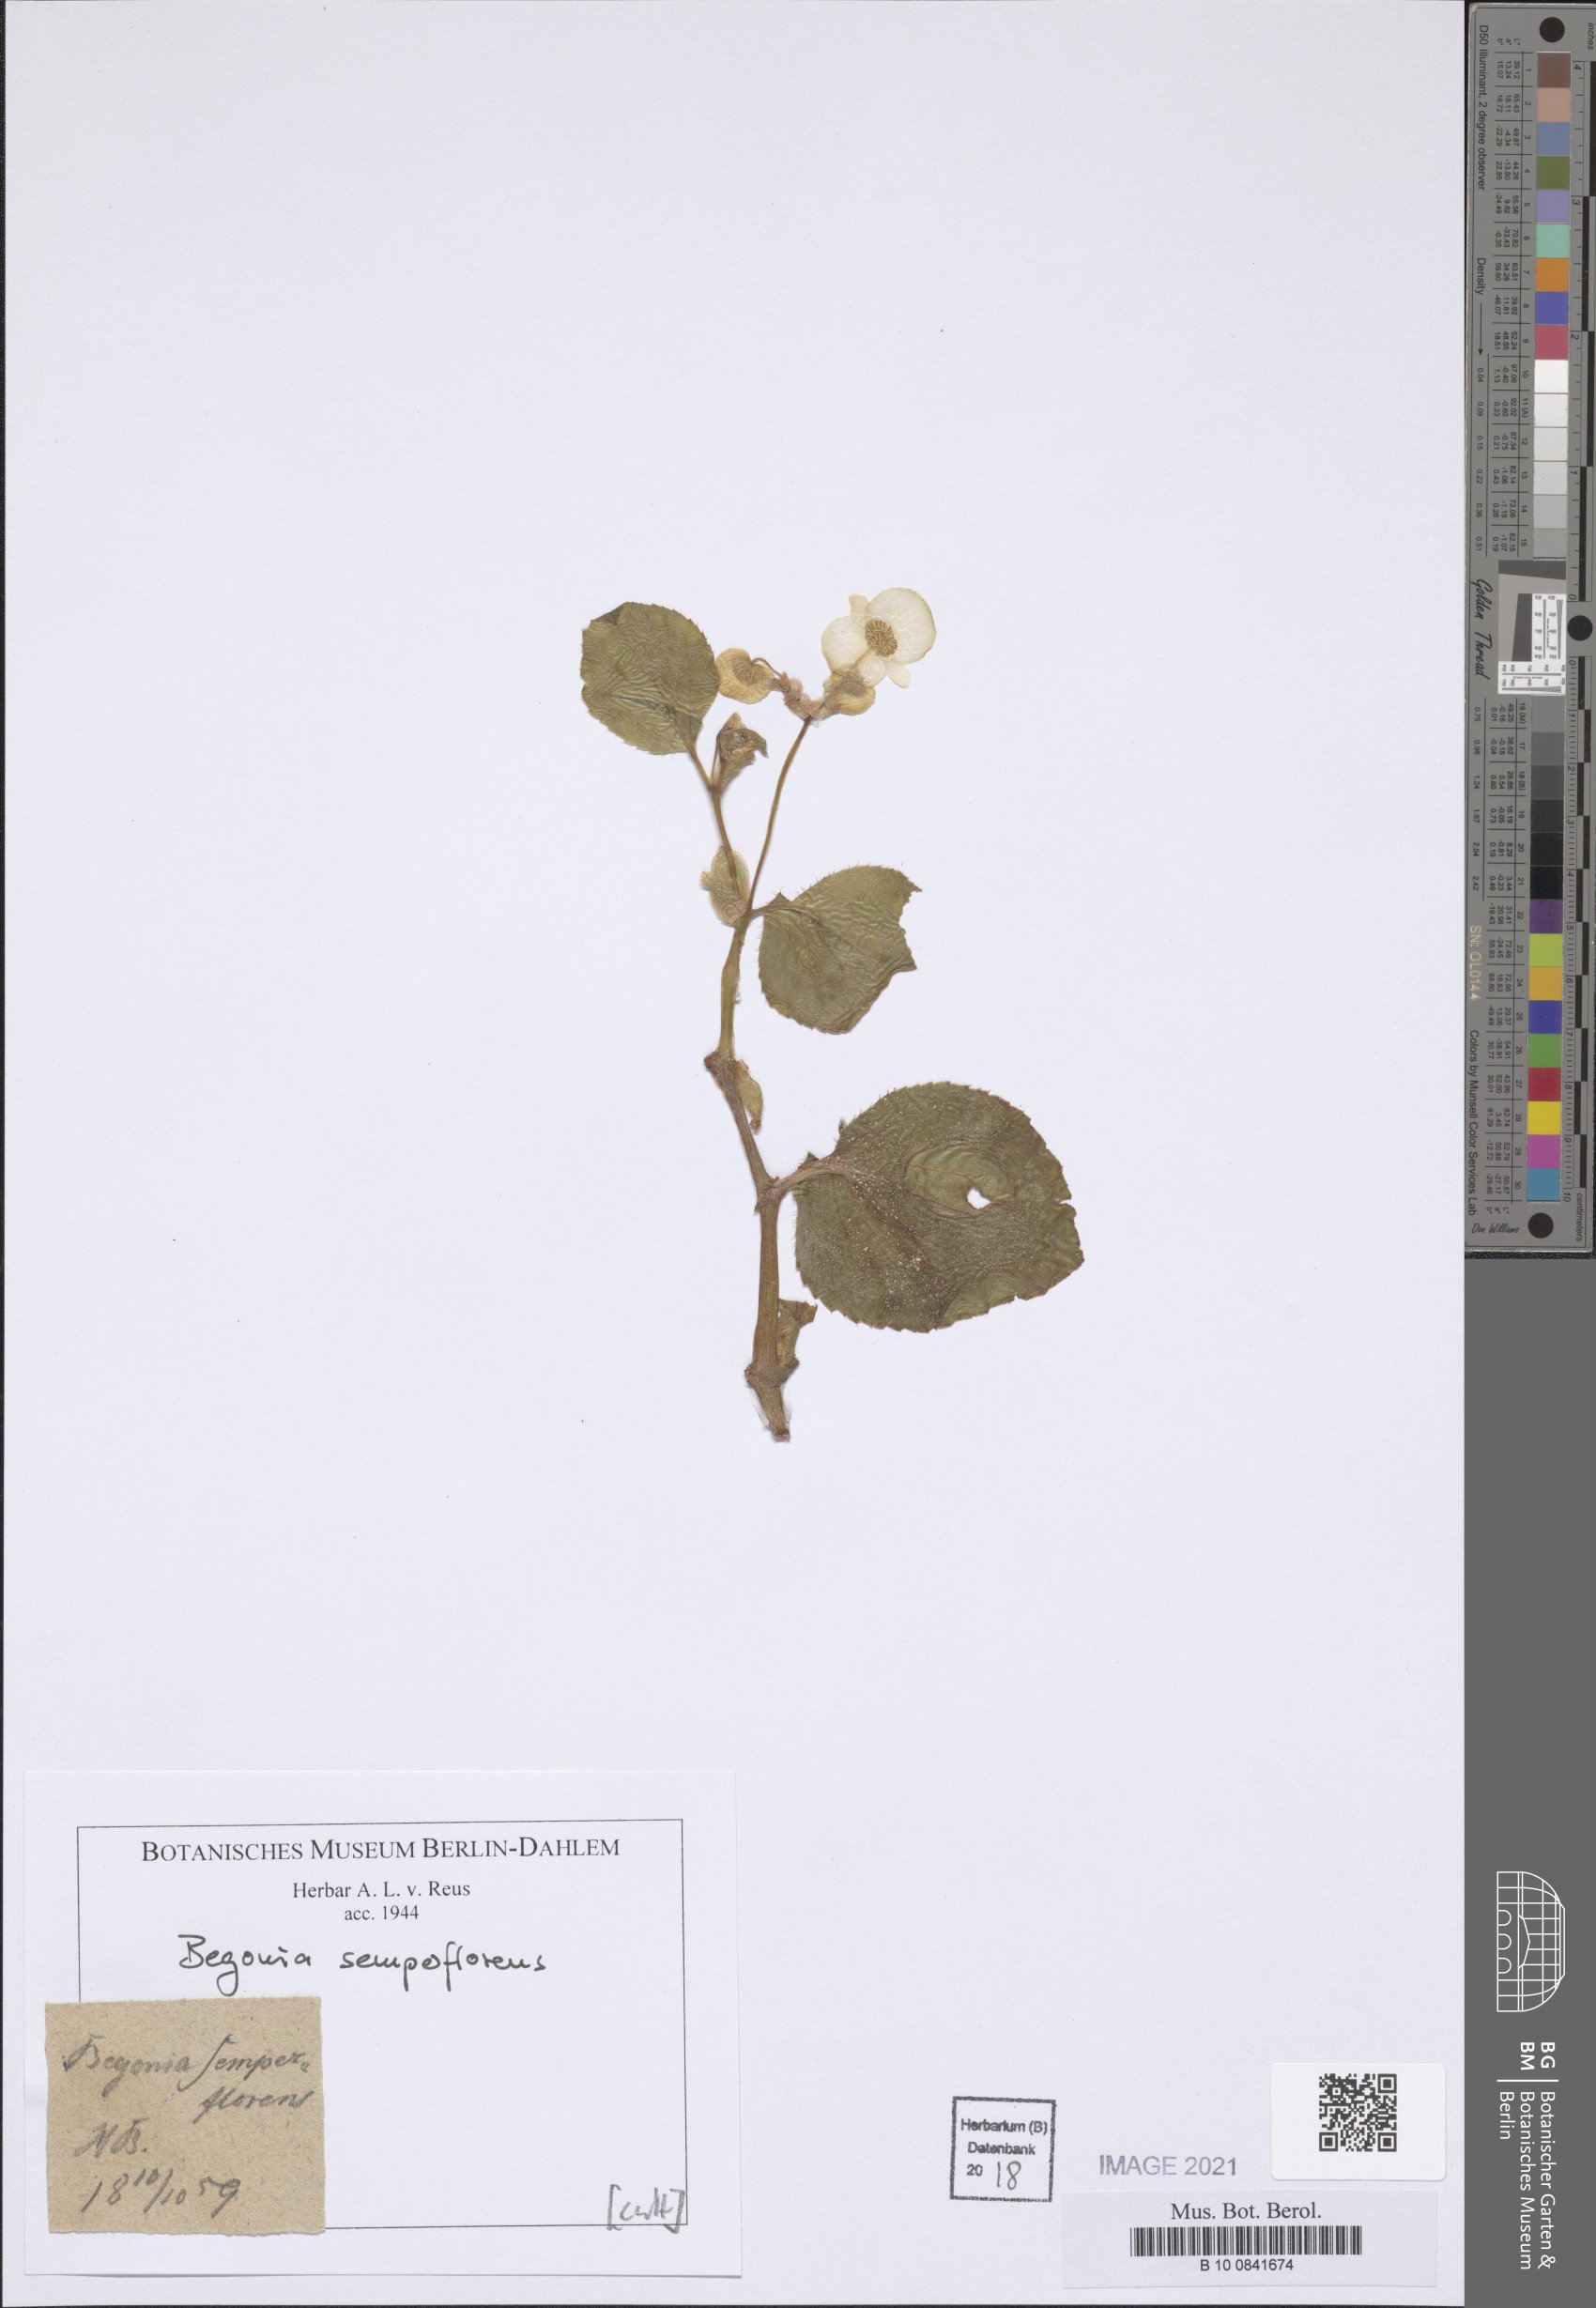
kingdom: Plantae
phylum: Tracheophyta
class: Magnoliopsida
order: Cucurbitales
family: Begoniaceae
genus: Begonia
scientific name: Begonia cucullata
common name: Clubbed begonia
